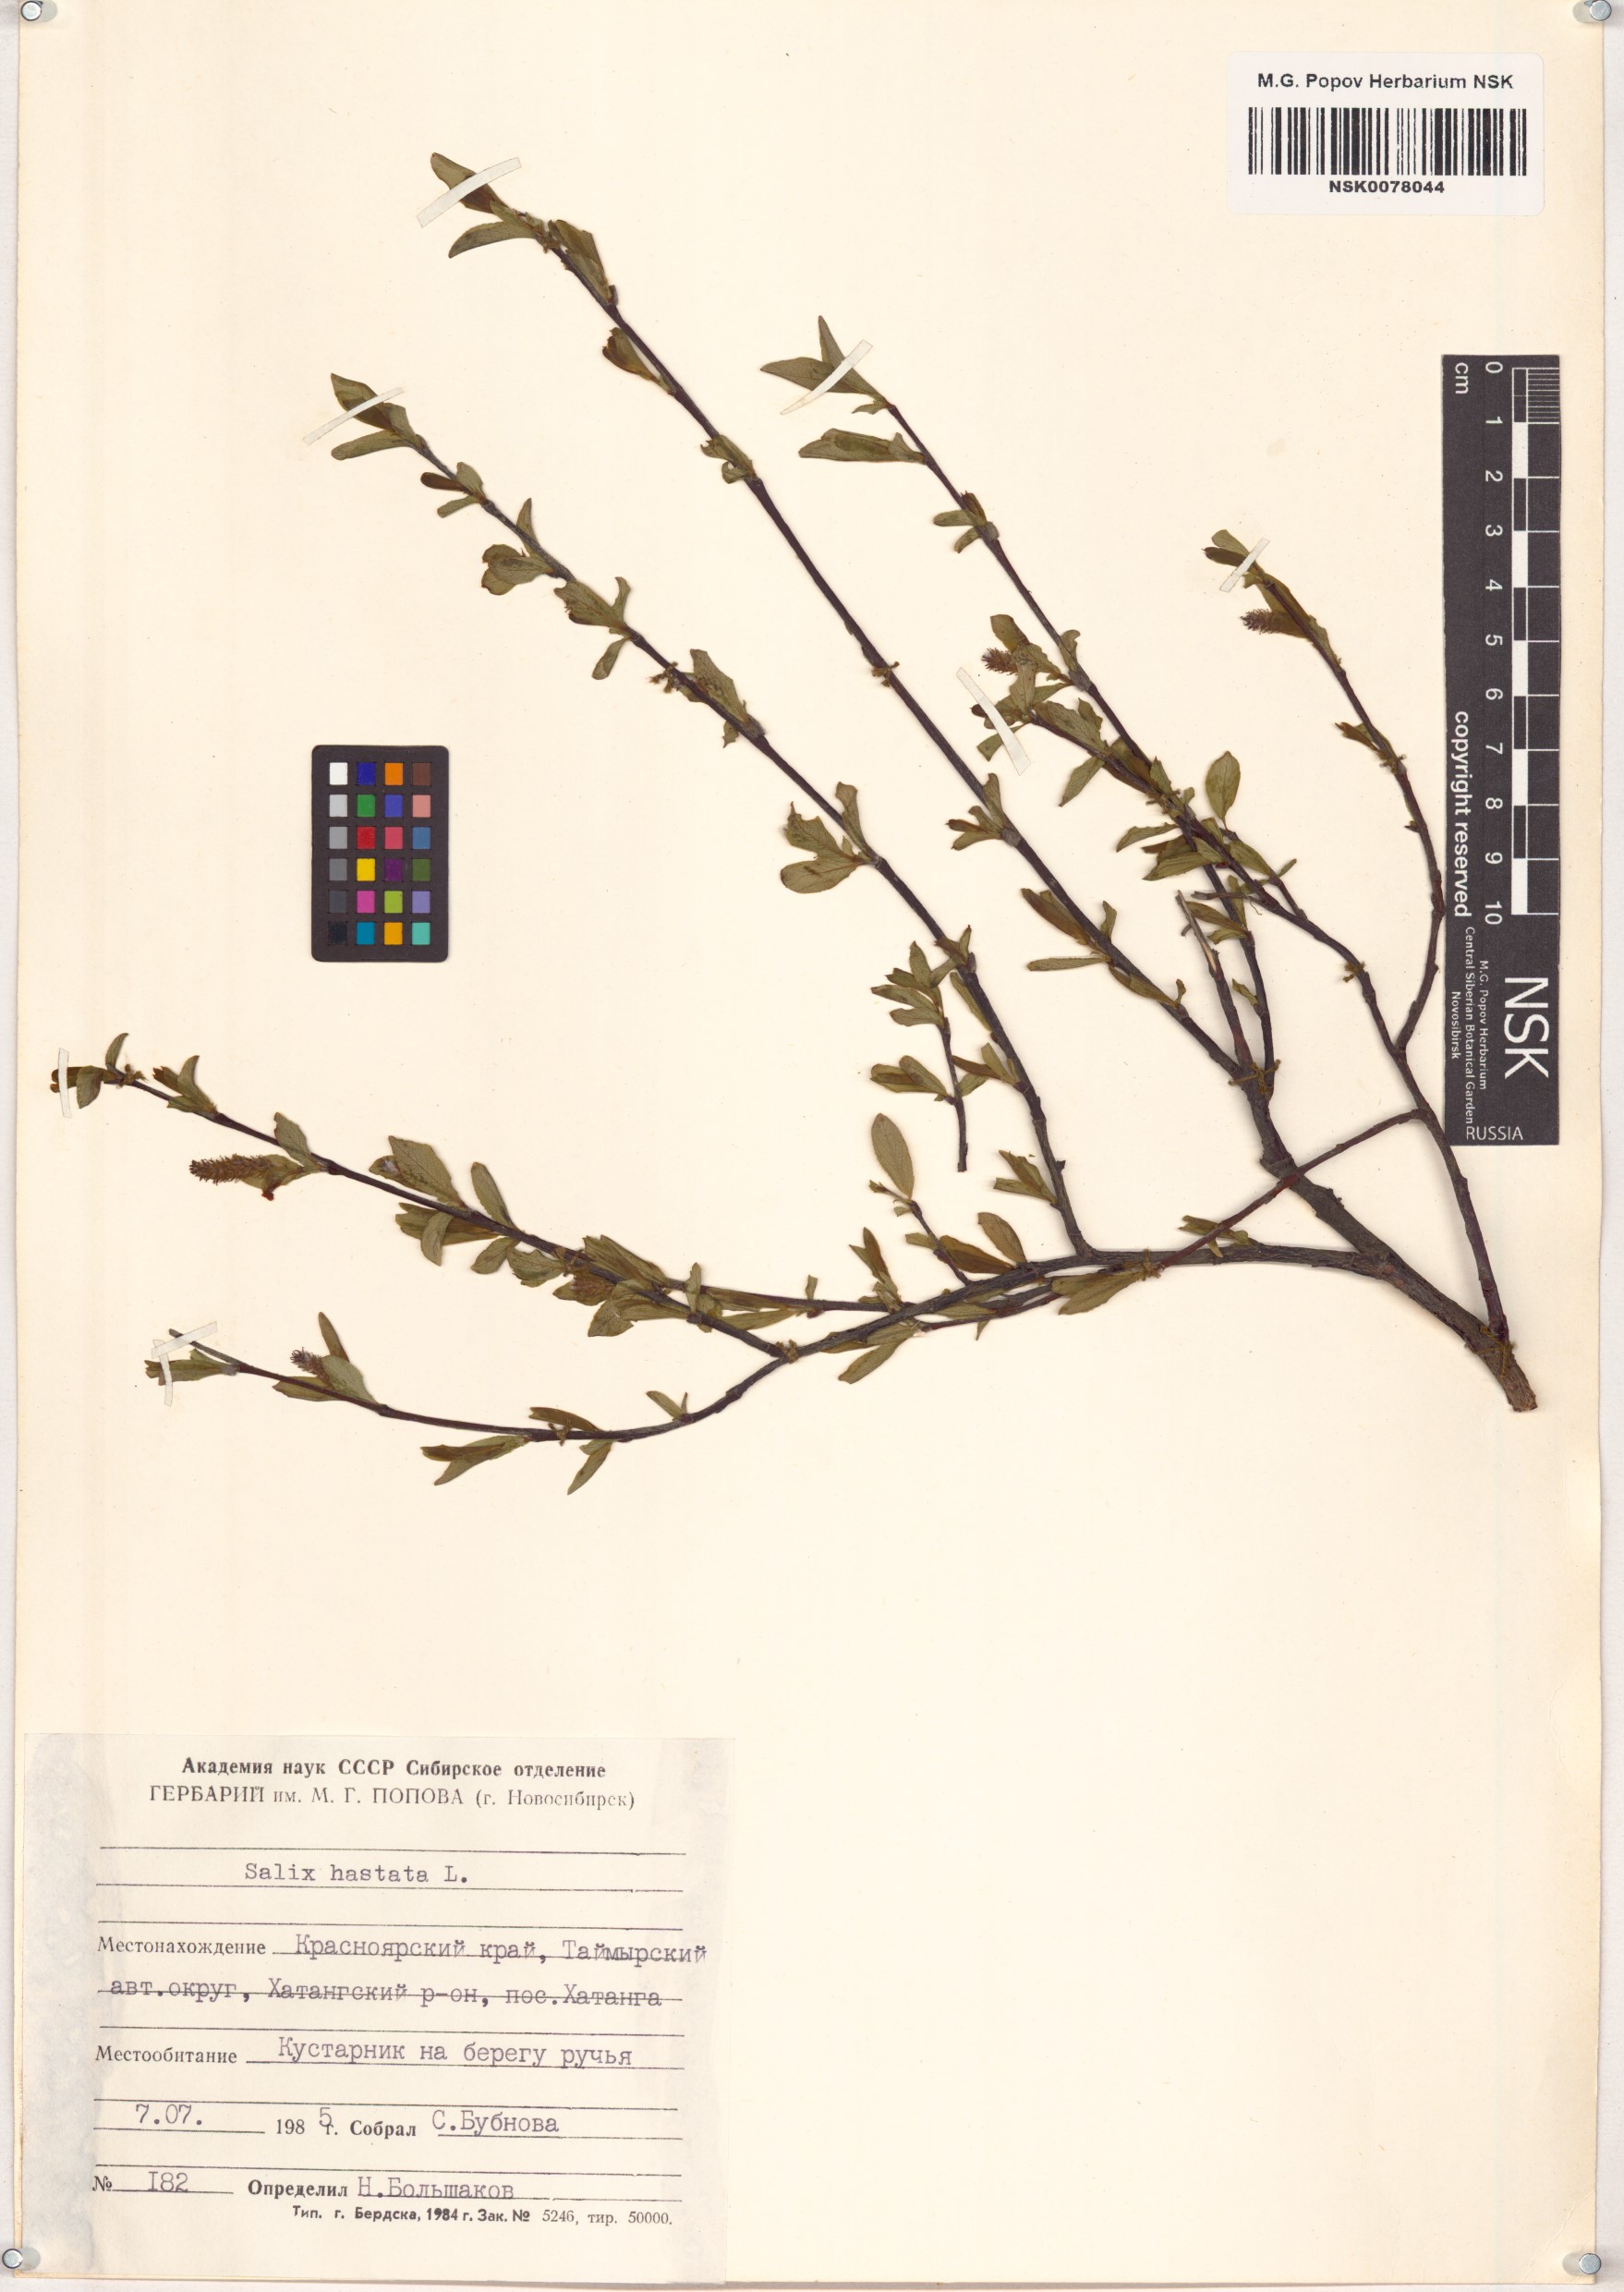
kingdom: Plantae
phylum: Tracheophyta
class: Magnoliopsida
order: Malpighiales
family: Salicaceae
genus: Salix
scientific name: Salix hastata
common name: Halberd willow
